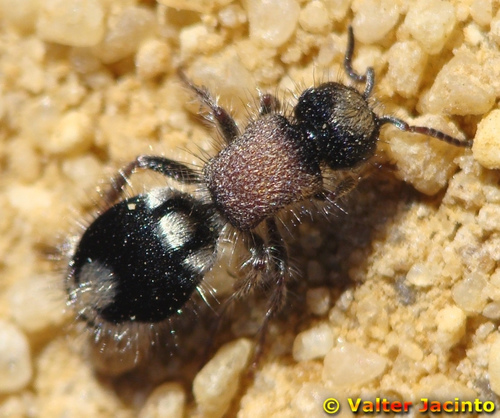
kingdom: Animalia
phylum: Arthropoda
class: Insecta
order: Hymenoptera
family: Mutillidae
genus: Ronisia
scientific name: Ronisia ghilianii
